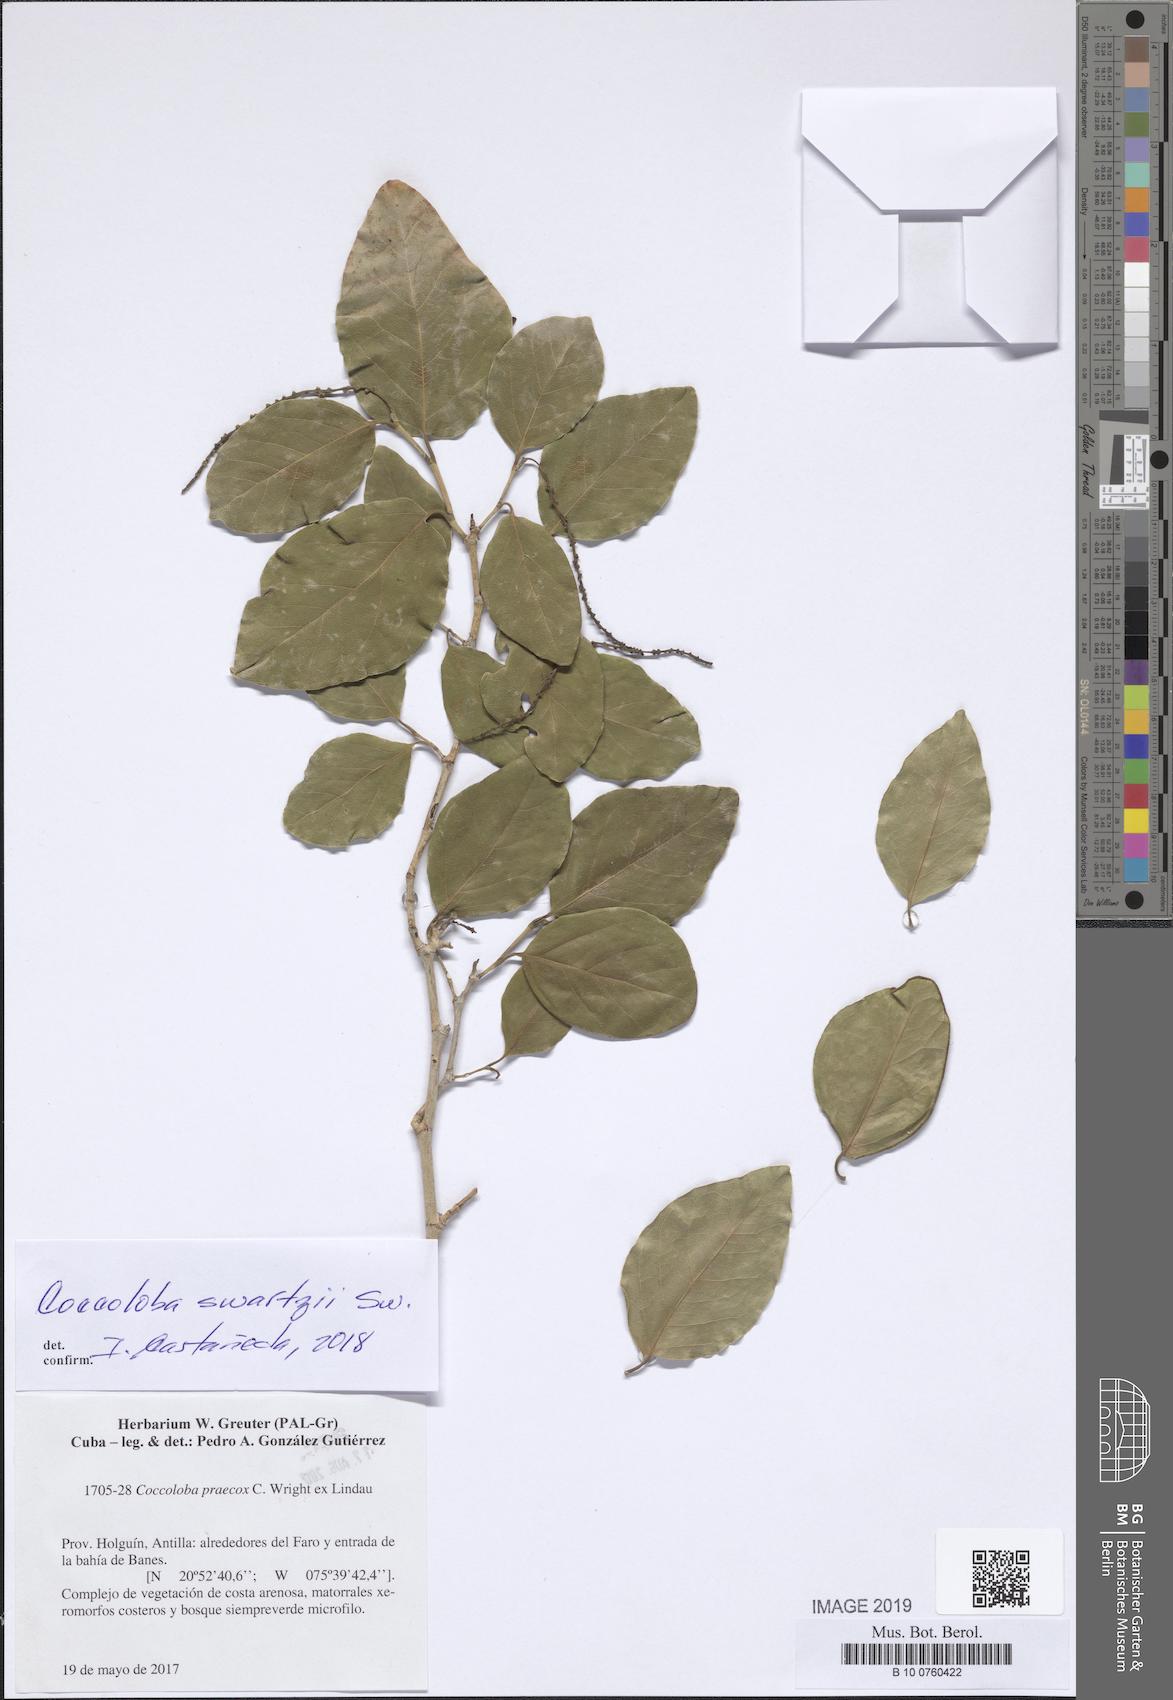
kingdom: Plantae
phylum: Tracheophyta
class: Magnoliopsida
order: Caryophyllales
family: Polygonaceae
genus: Coccoloba
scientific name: Coccoloba swartzii
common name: Red wood
